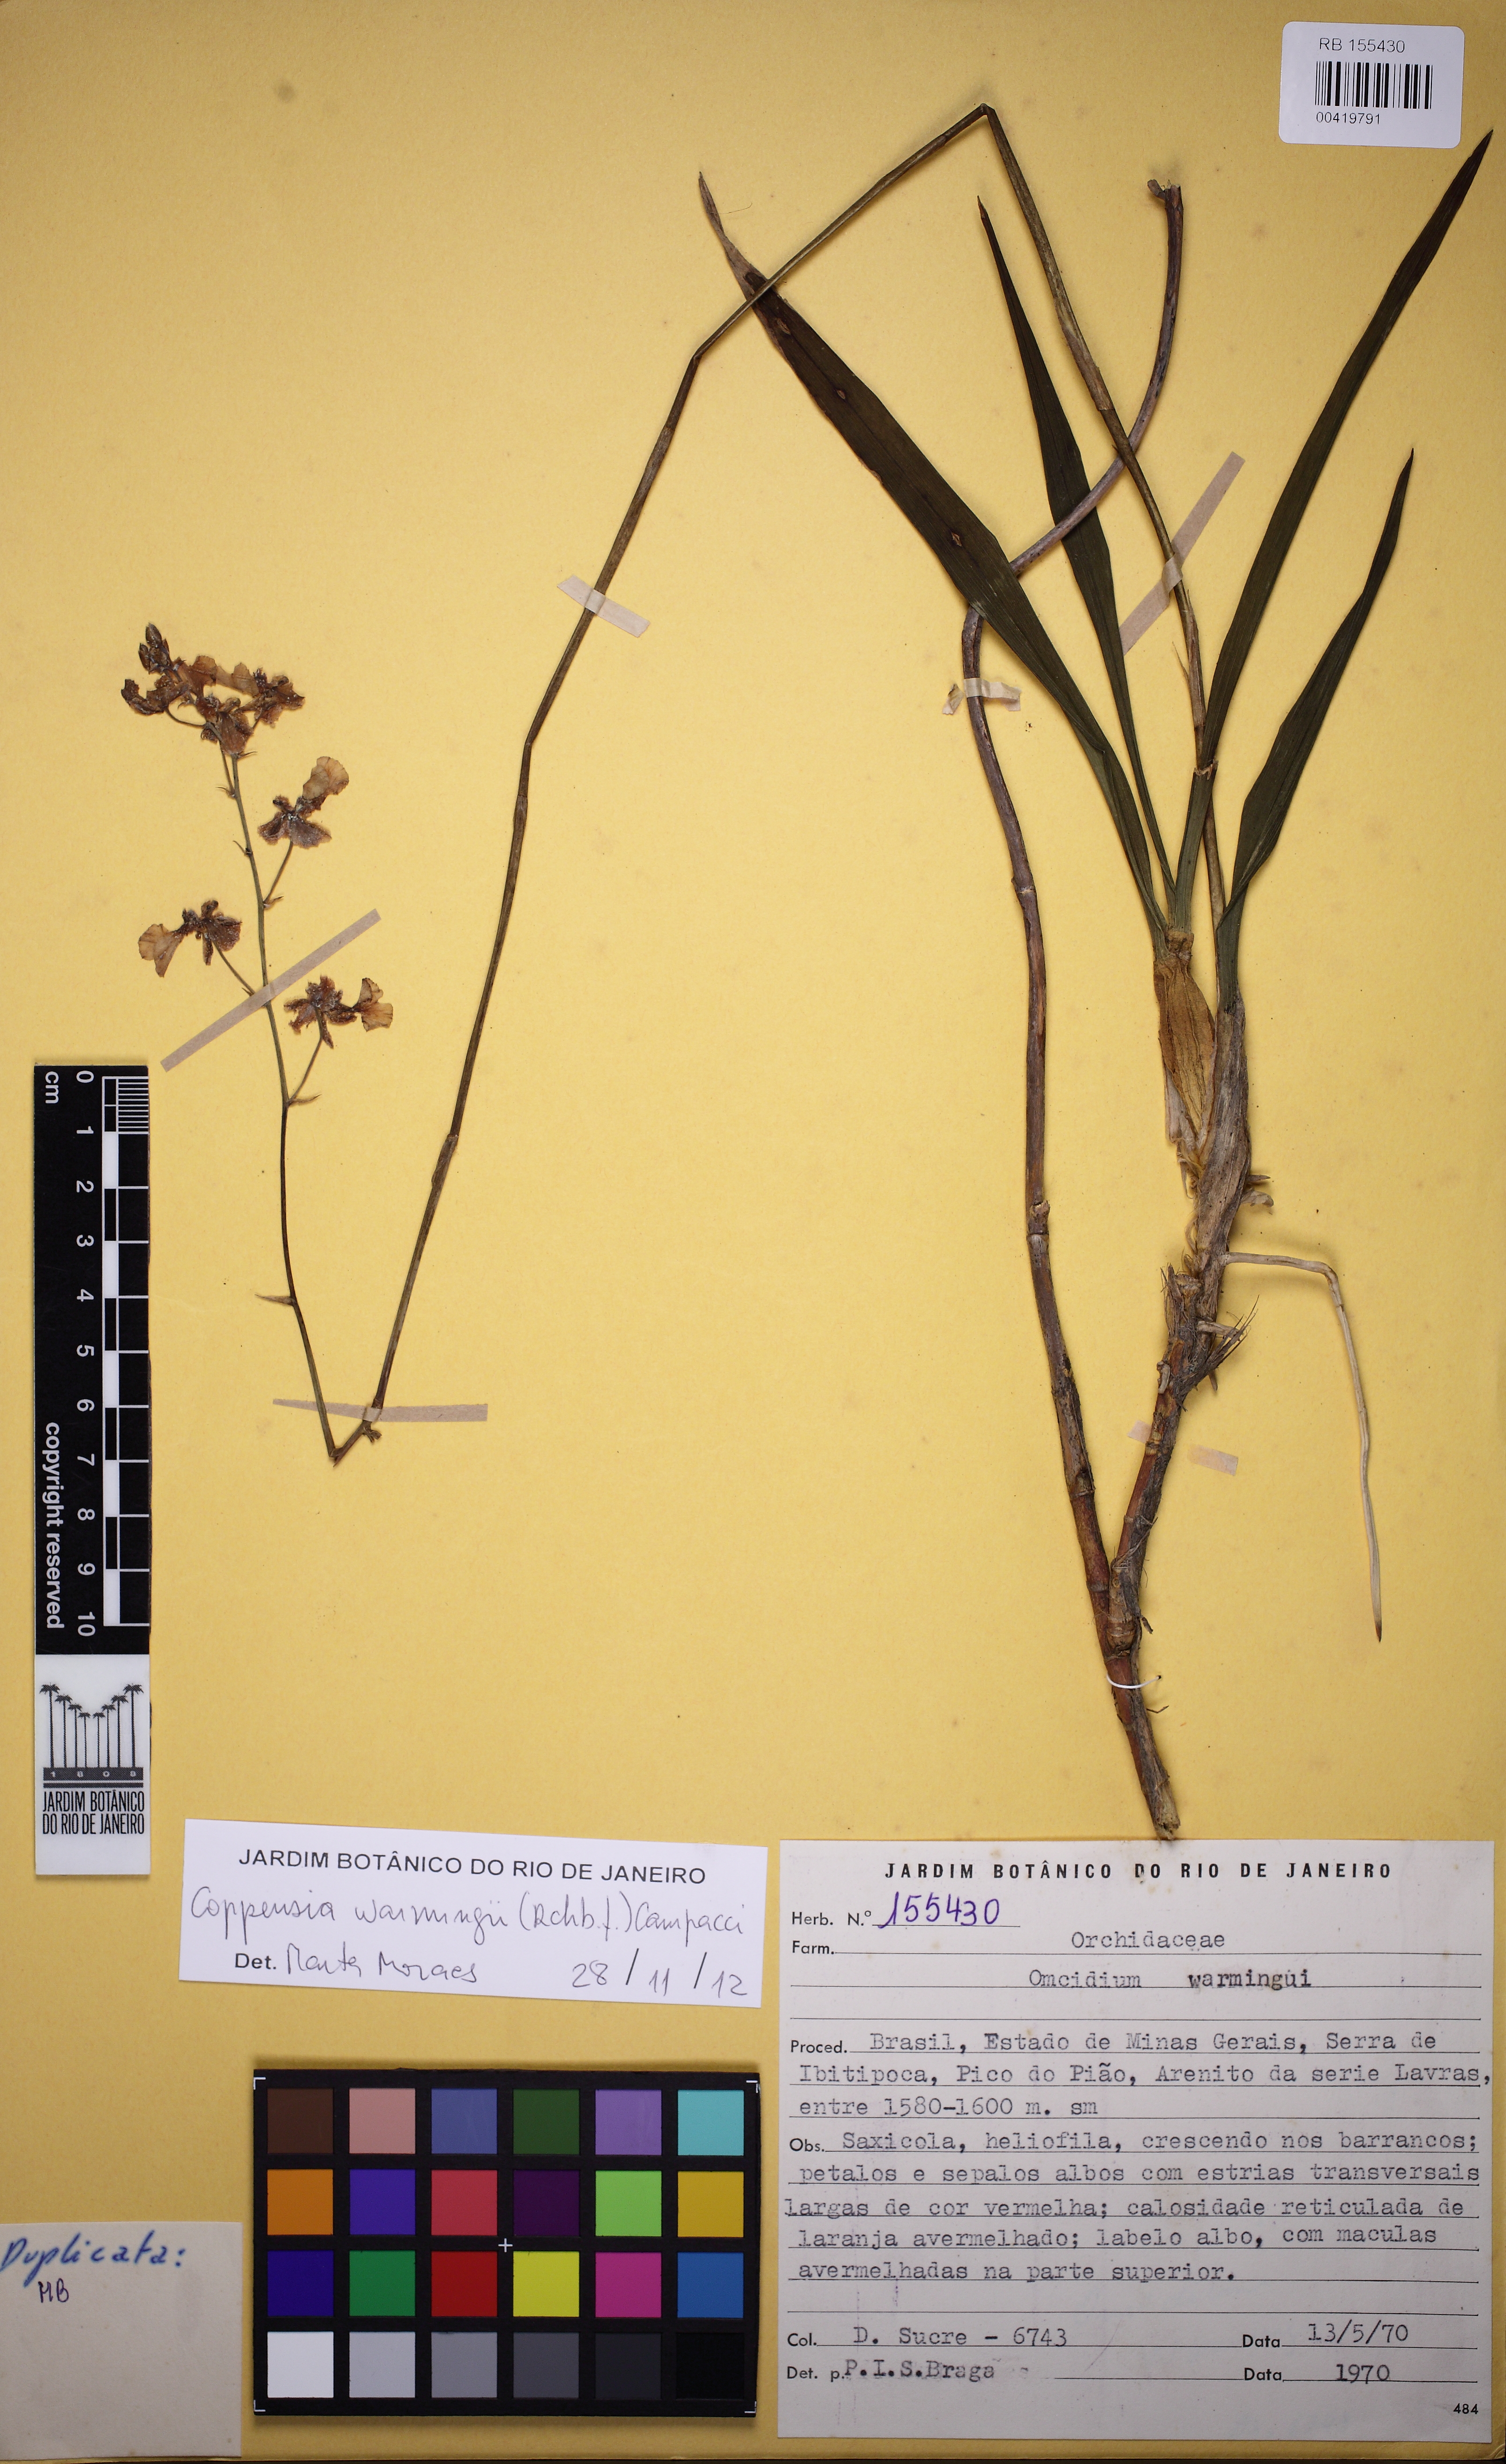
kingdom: Plantae
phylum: Tracheophyta
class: Liliopsida
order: Asparagales
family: Orchidaceae
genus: Gomesa
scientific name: Gomesa warmingii
